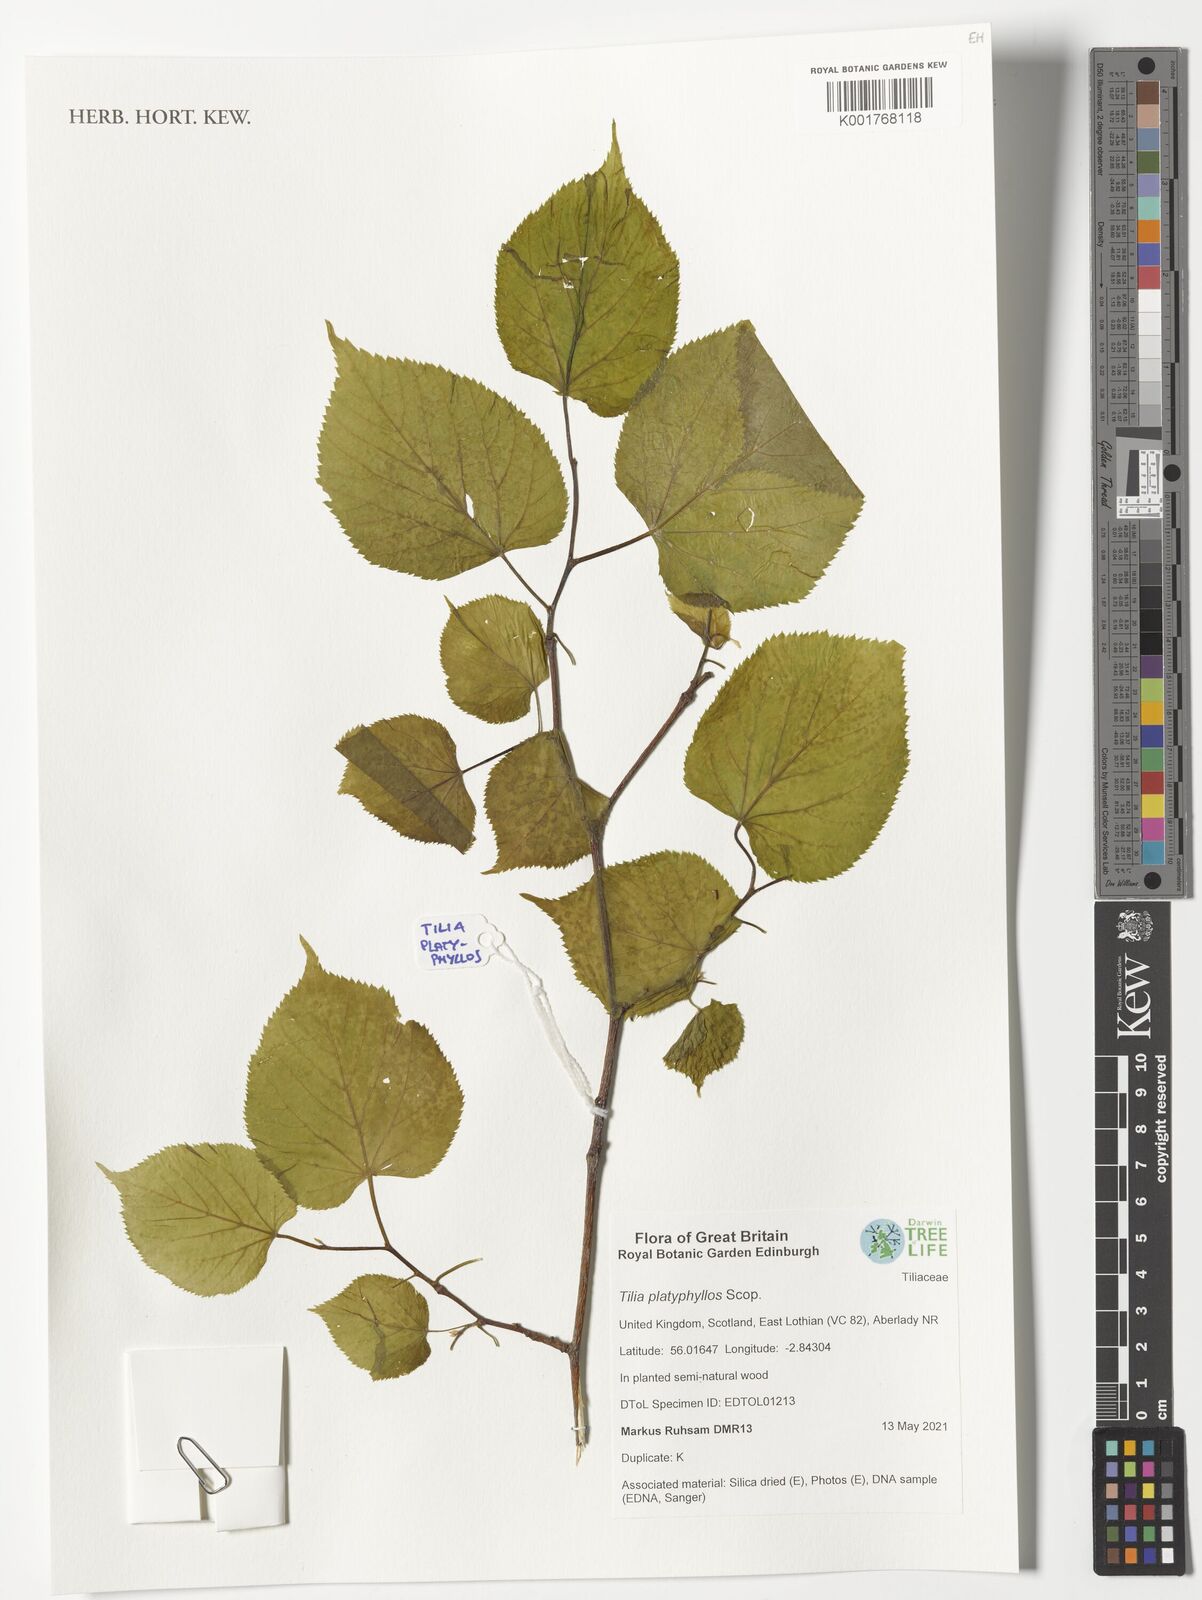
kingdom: Plantae
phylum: Tracheophyta
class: Magnoliopsida
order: Malvales
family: Malvaceae
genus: Tilia
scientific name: Tilia platyphyllos
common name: Large-leaved lime
